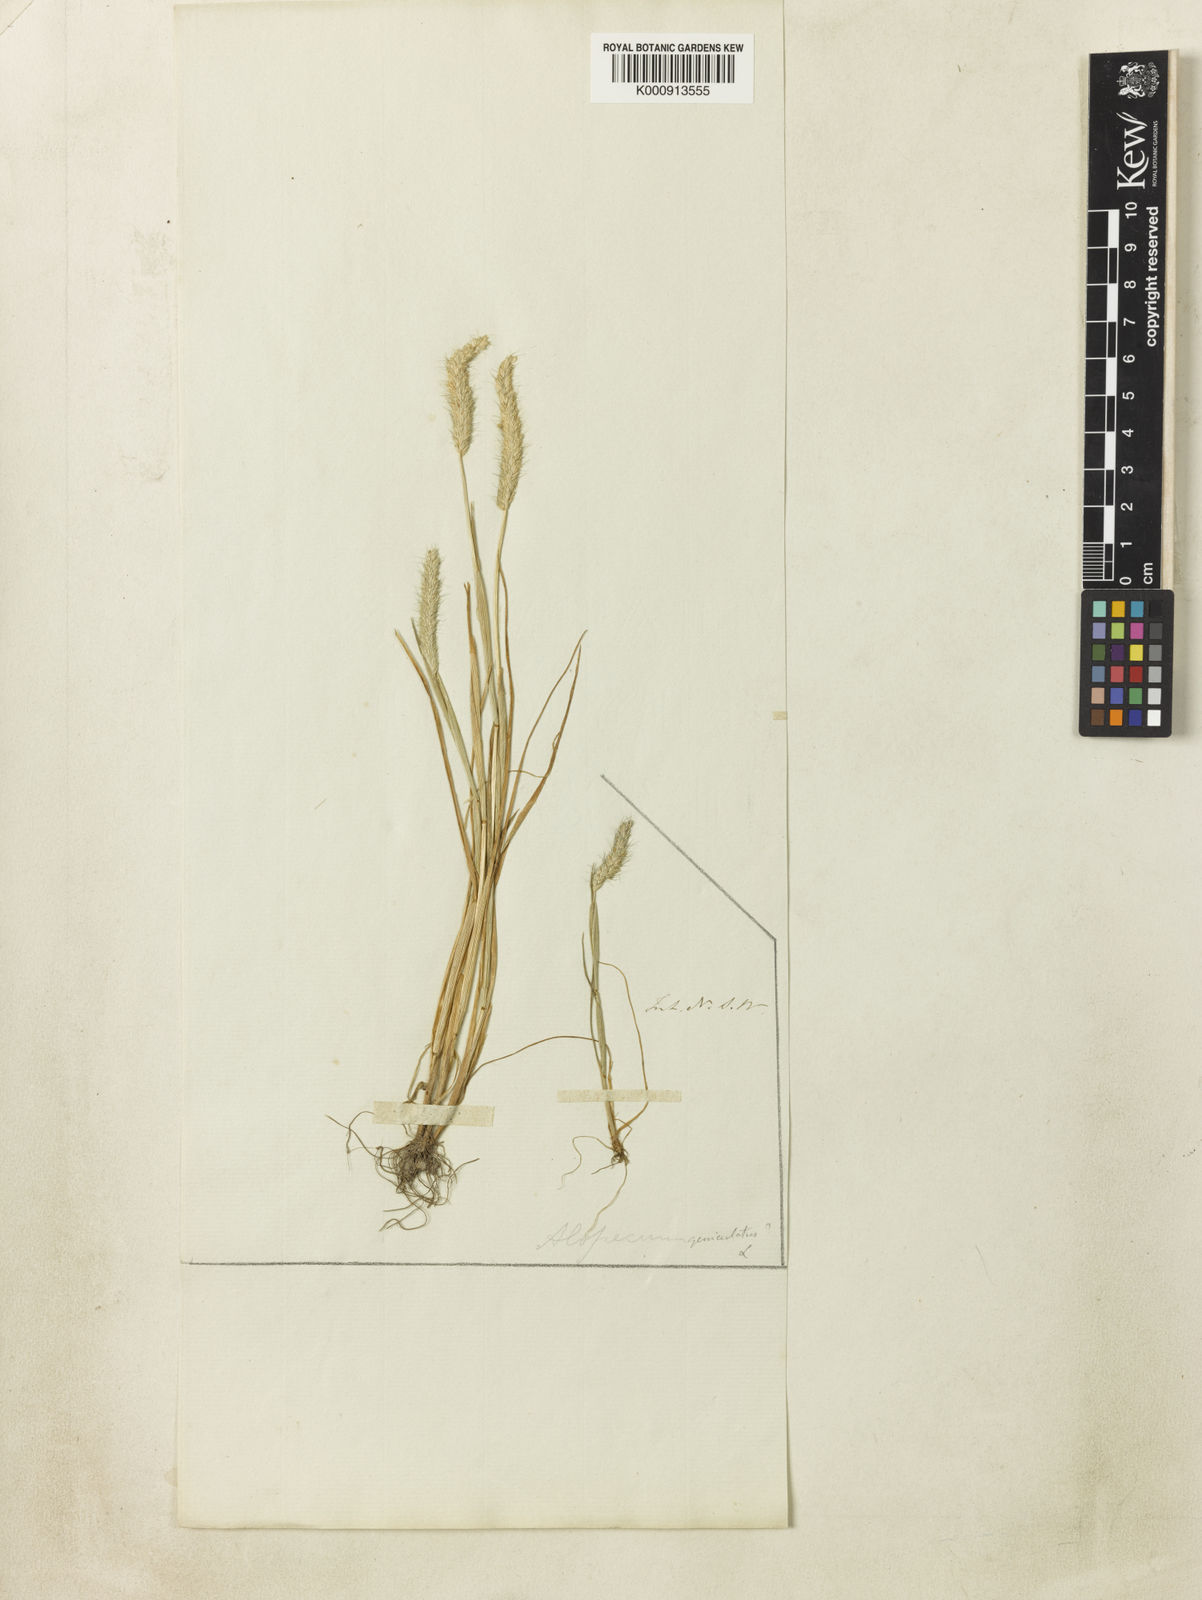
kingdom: Plantae
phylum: Tracheophyta
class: Liliopsida
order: Poales
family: Poaceae
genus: Alopecurus
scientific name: Alopecurus geniculatus
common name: Water foxtail
